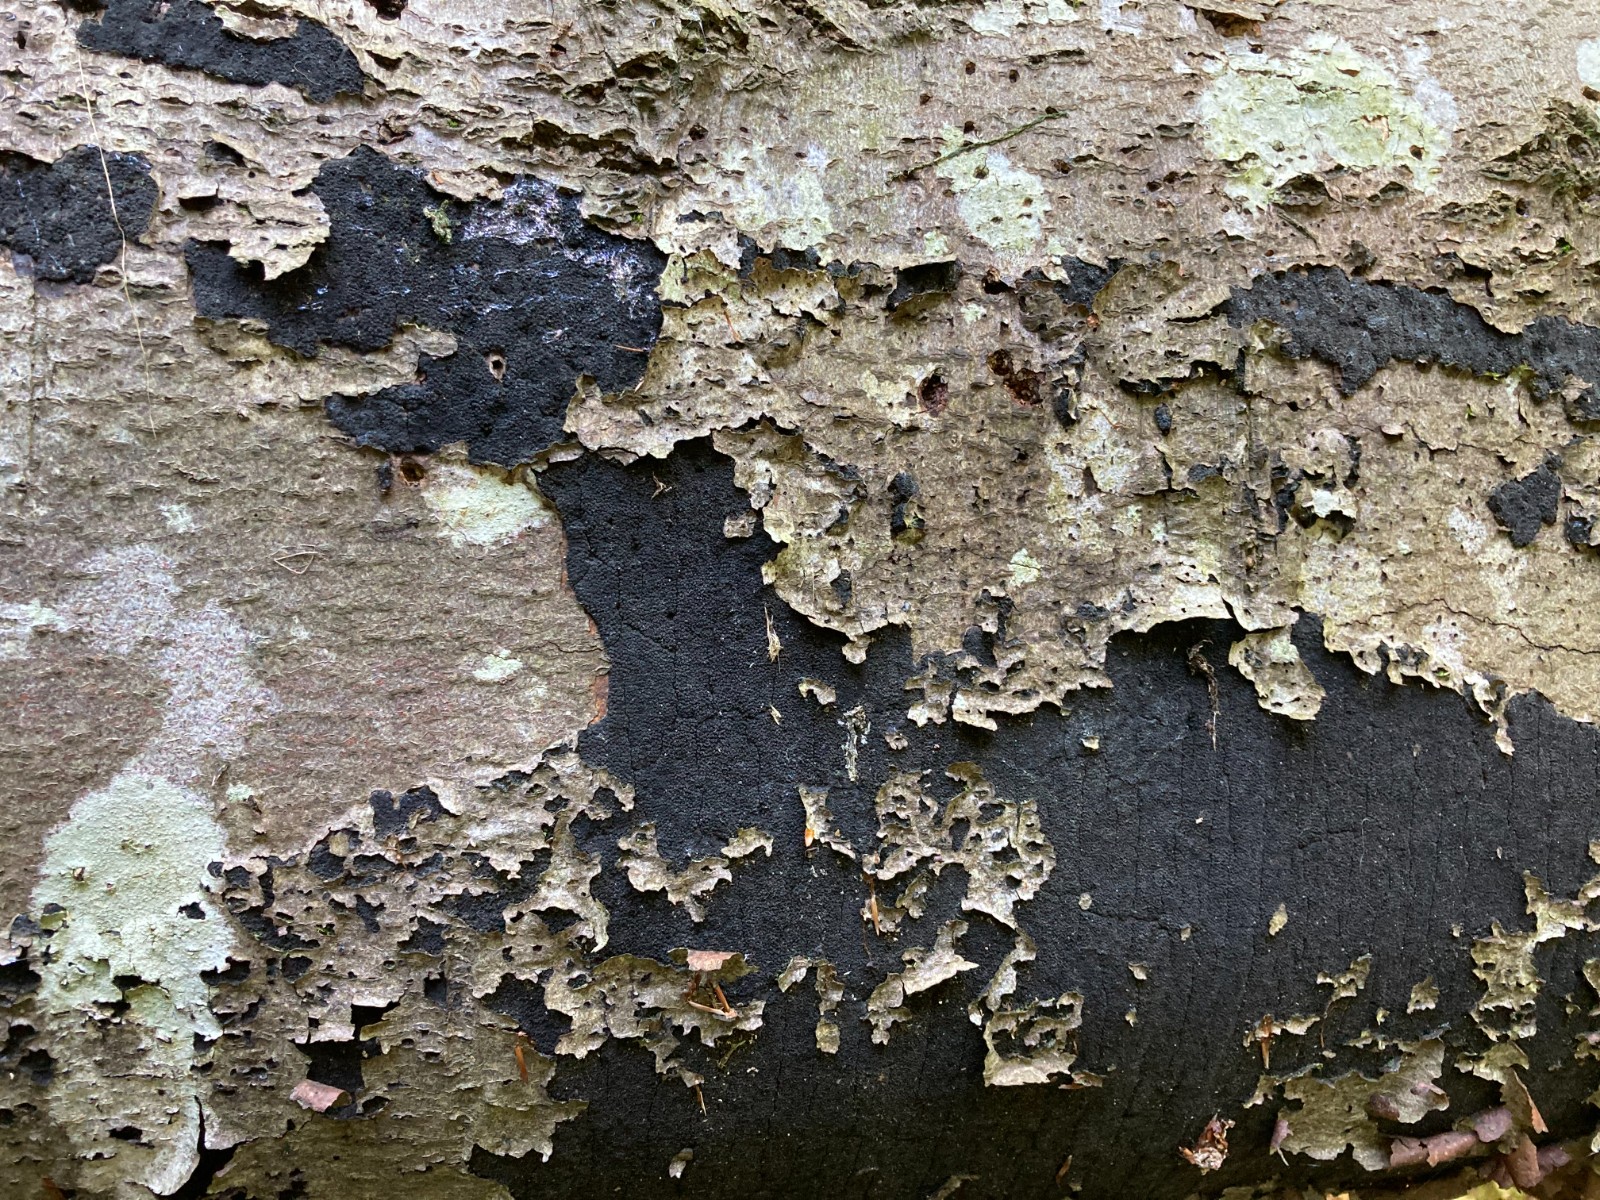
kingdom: Fungi
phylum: Ascomycota
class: Sordariomycetes
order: Xylariales
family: Diatrypaceae
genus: Eutypa
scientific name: Eutypa spinosa
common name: grov kulskorpe
